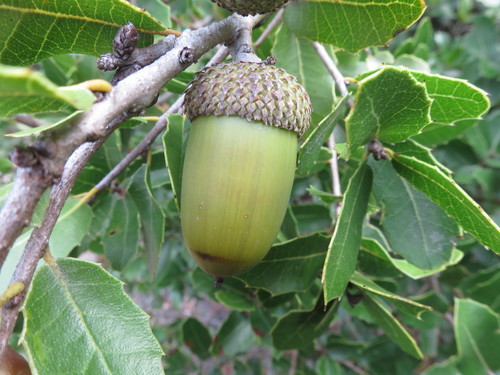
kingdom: Plantae
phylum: Tracheophyta
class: Magnoliopsida
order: Fagales
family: Fagaceae
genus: Quercus
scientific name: Quercus coccifera
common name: Kermes oak
